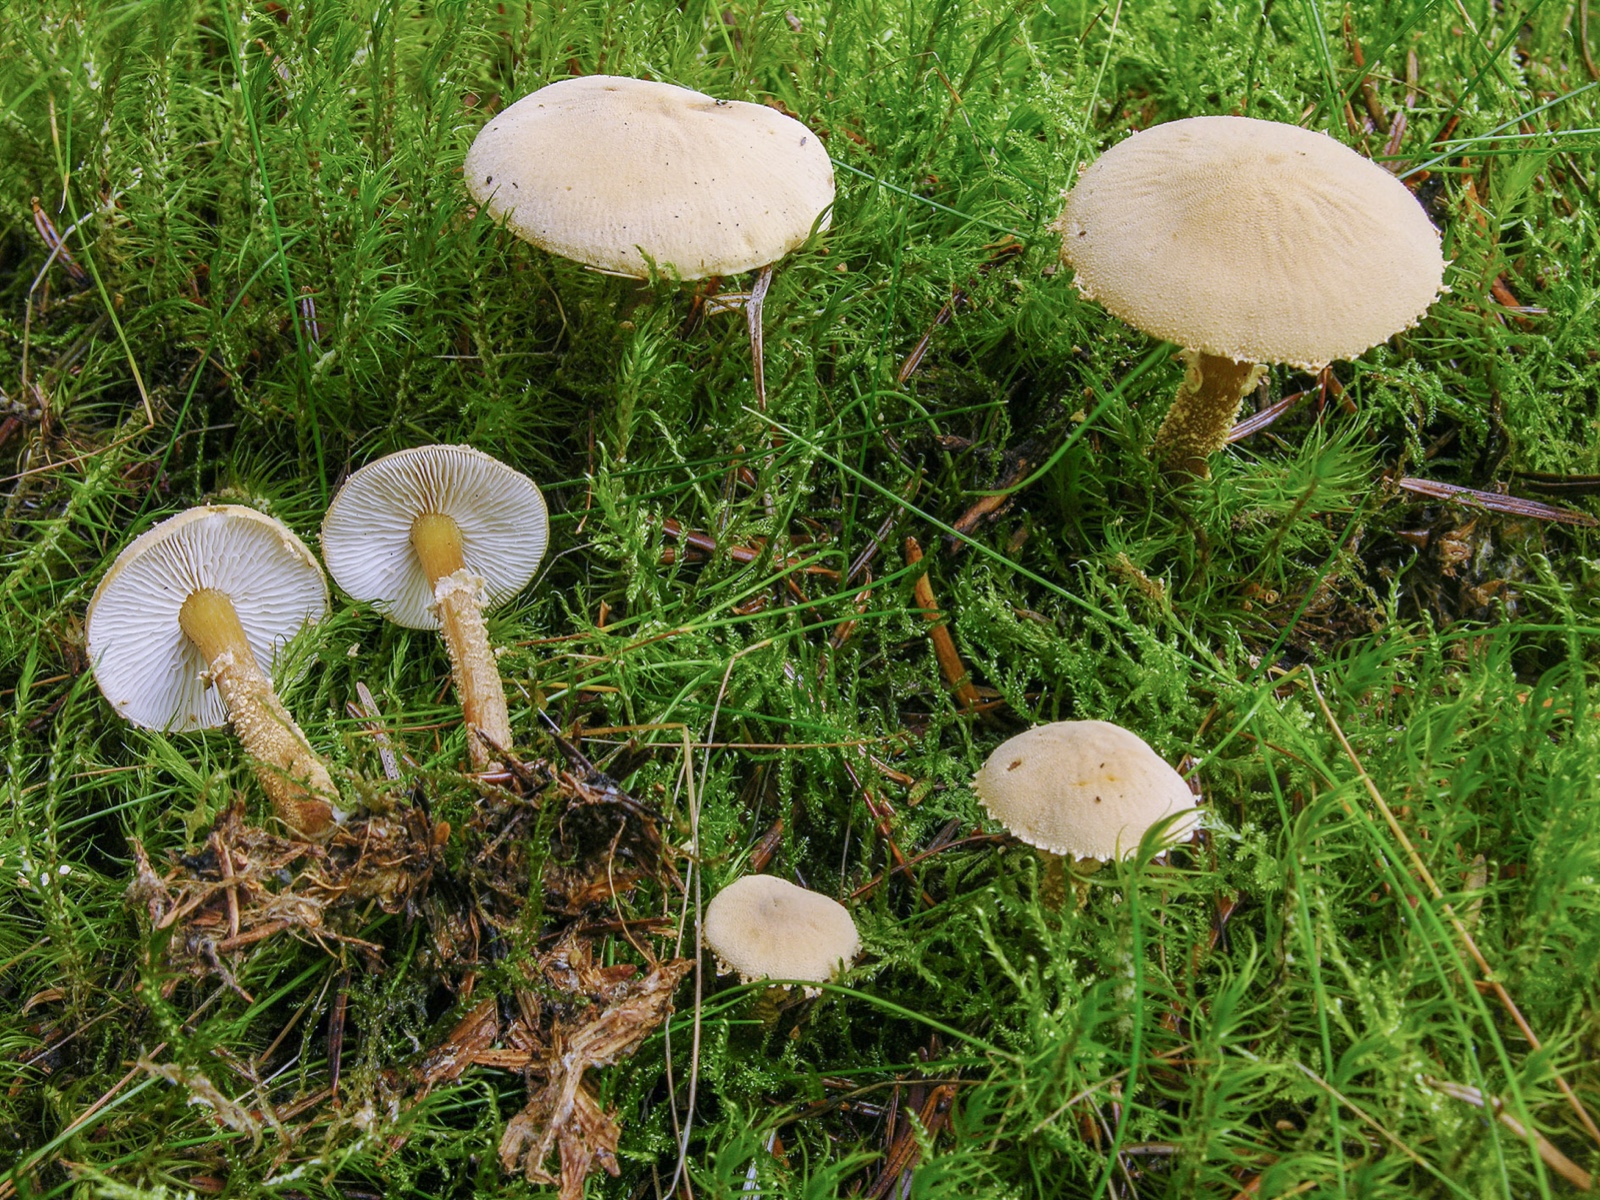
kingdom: Fungi
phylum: Basidiomycota
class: Agaricomycetes
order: Agaricales
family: Tricholomataceae
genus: Cystoderma
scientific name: Cystoderma
